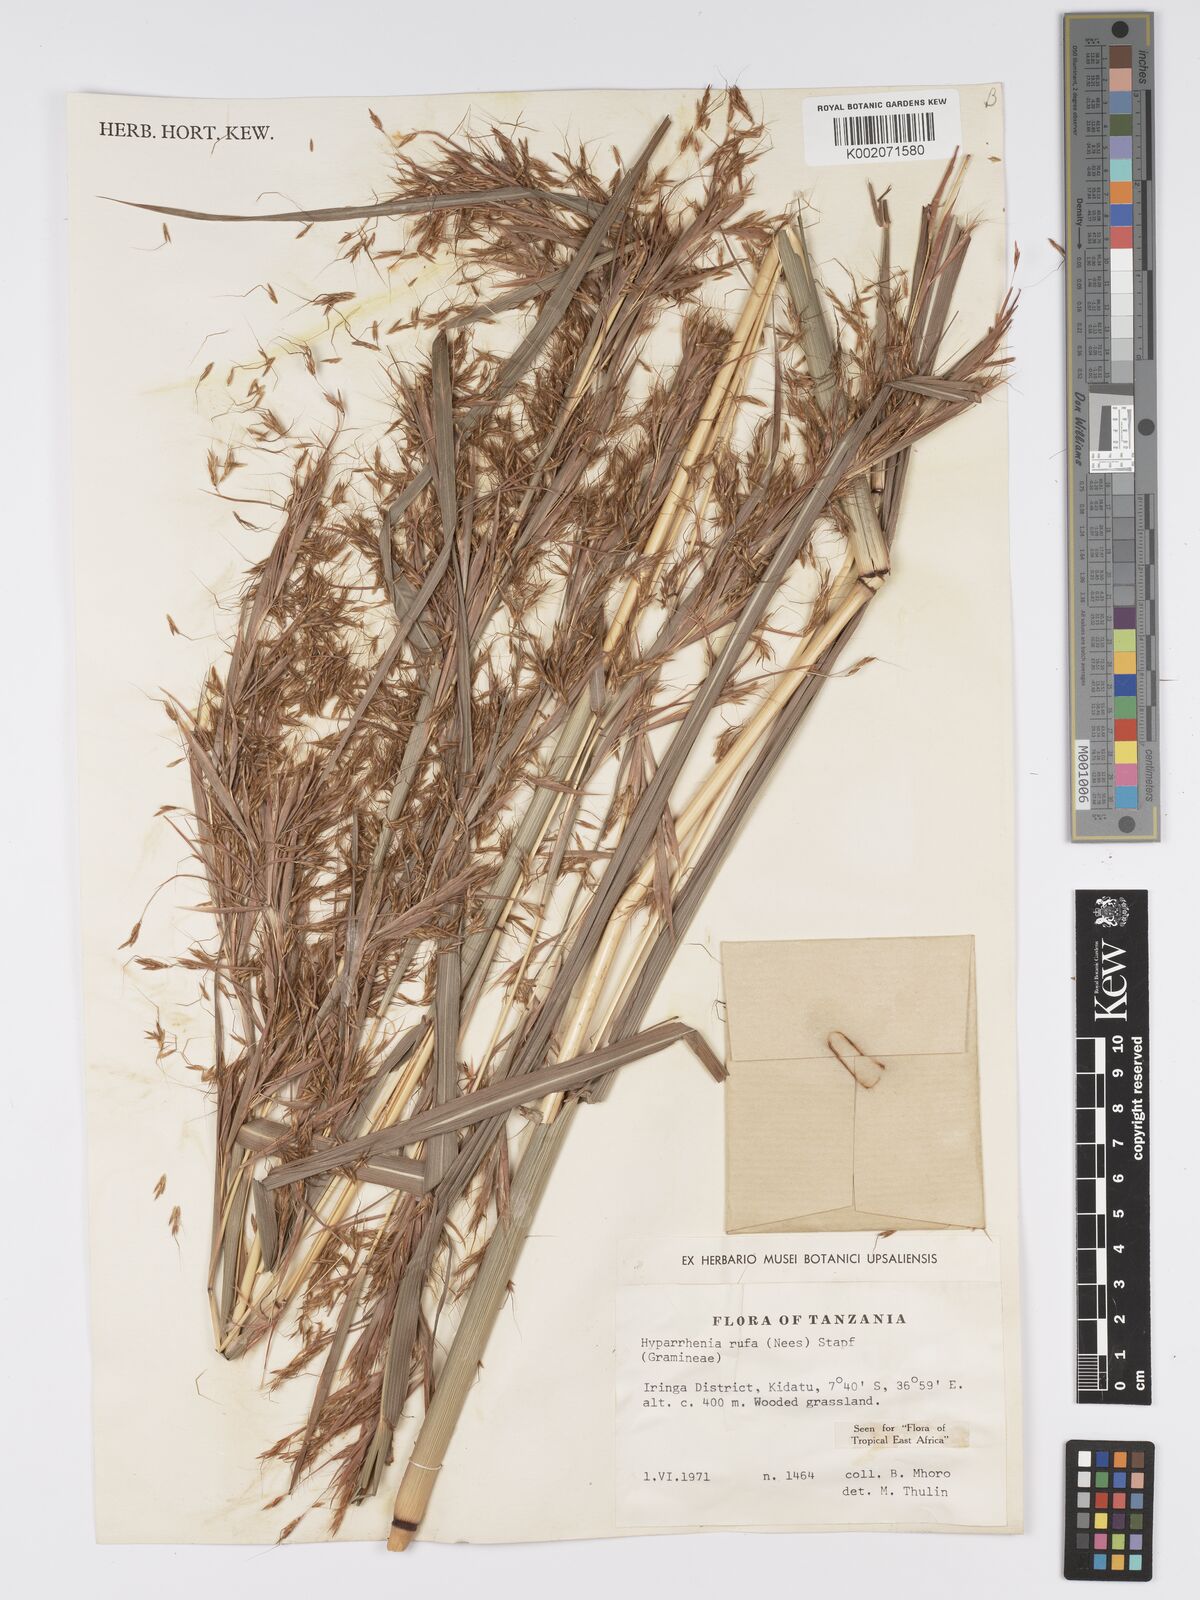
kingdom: Plantae
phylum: Tracheophyta
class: Liliopsida
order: Poales
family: Poaceae
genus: Hyparrhenia
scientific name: Hyparrhenia rufa
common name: Jaraguagrass
